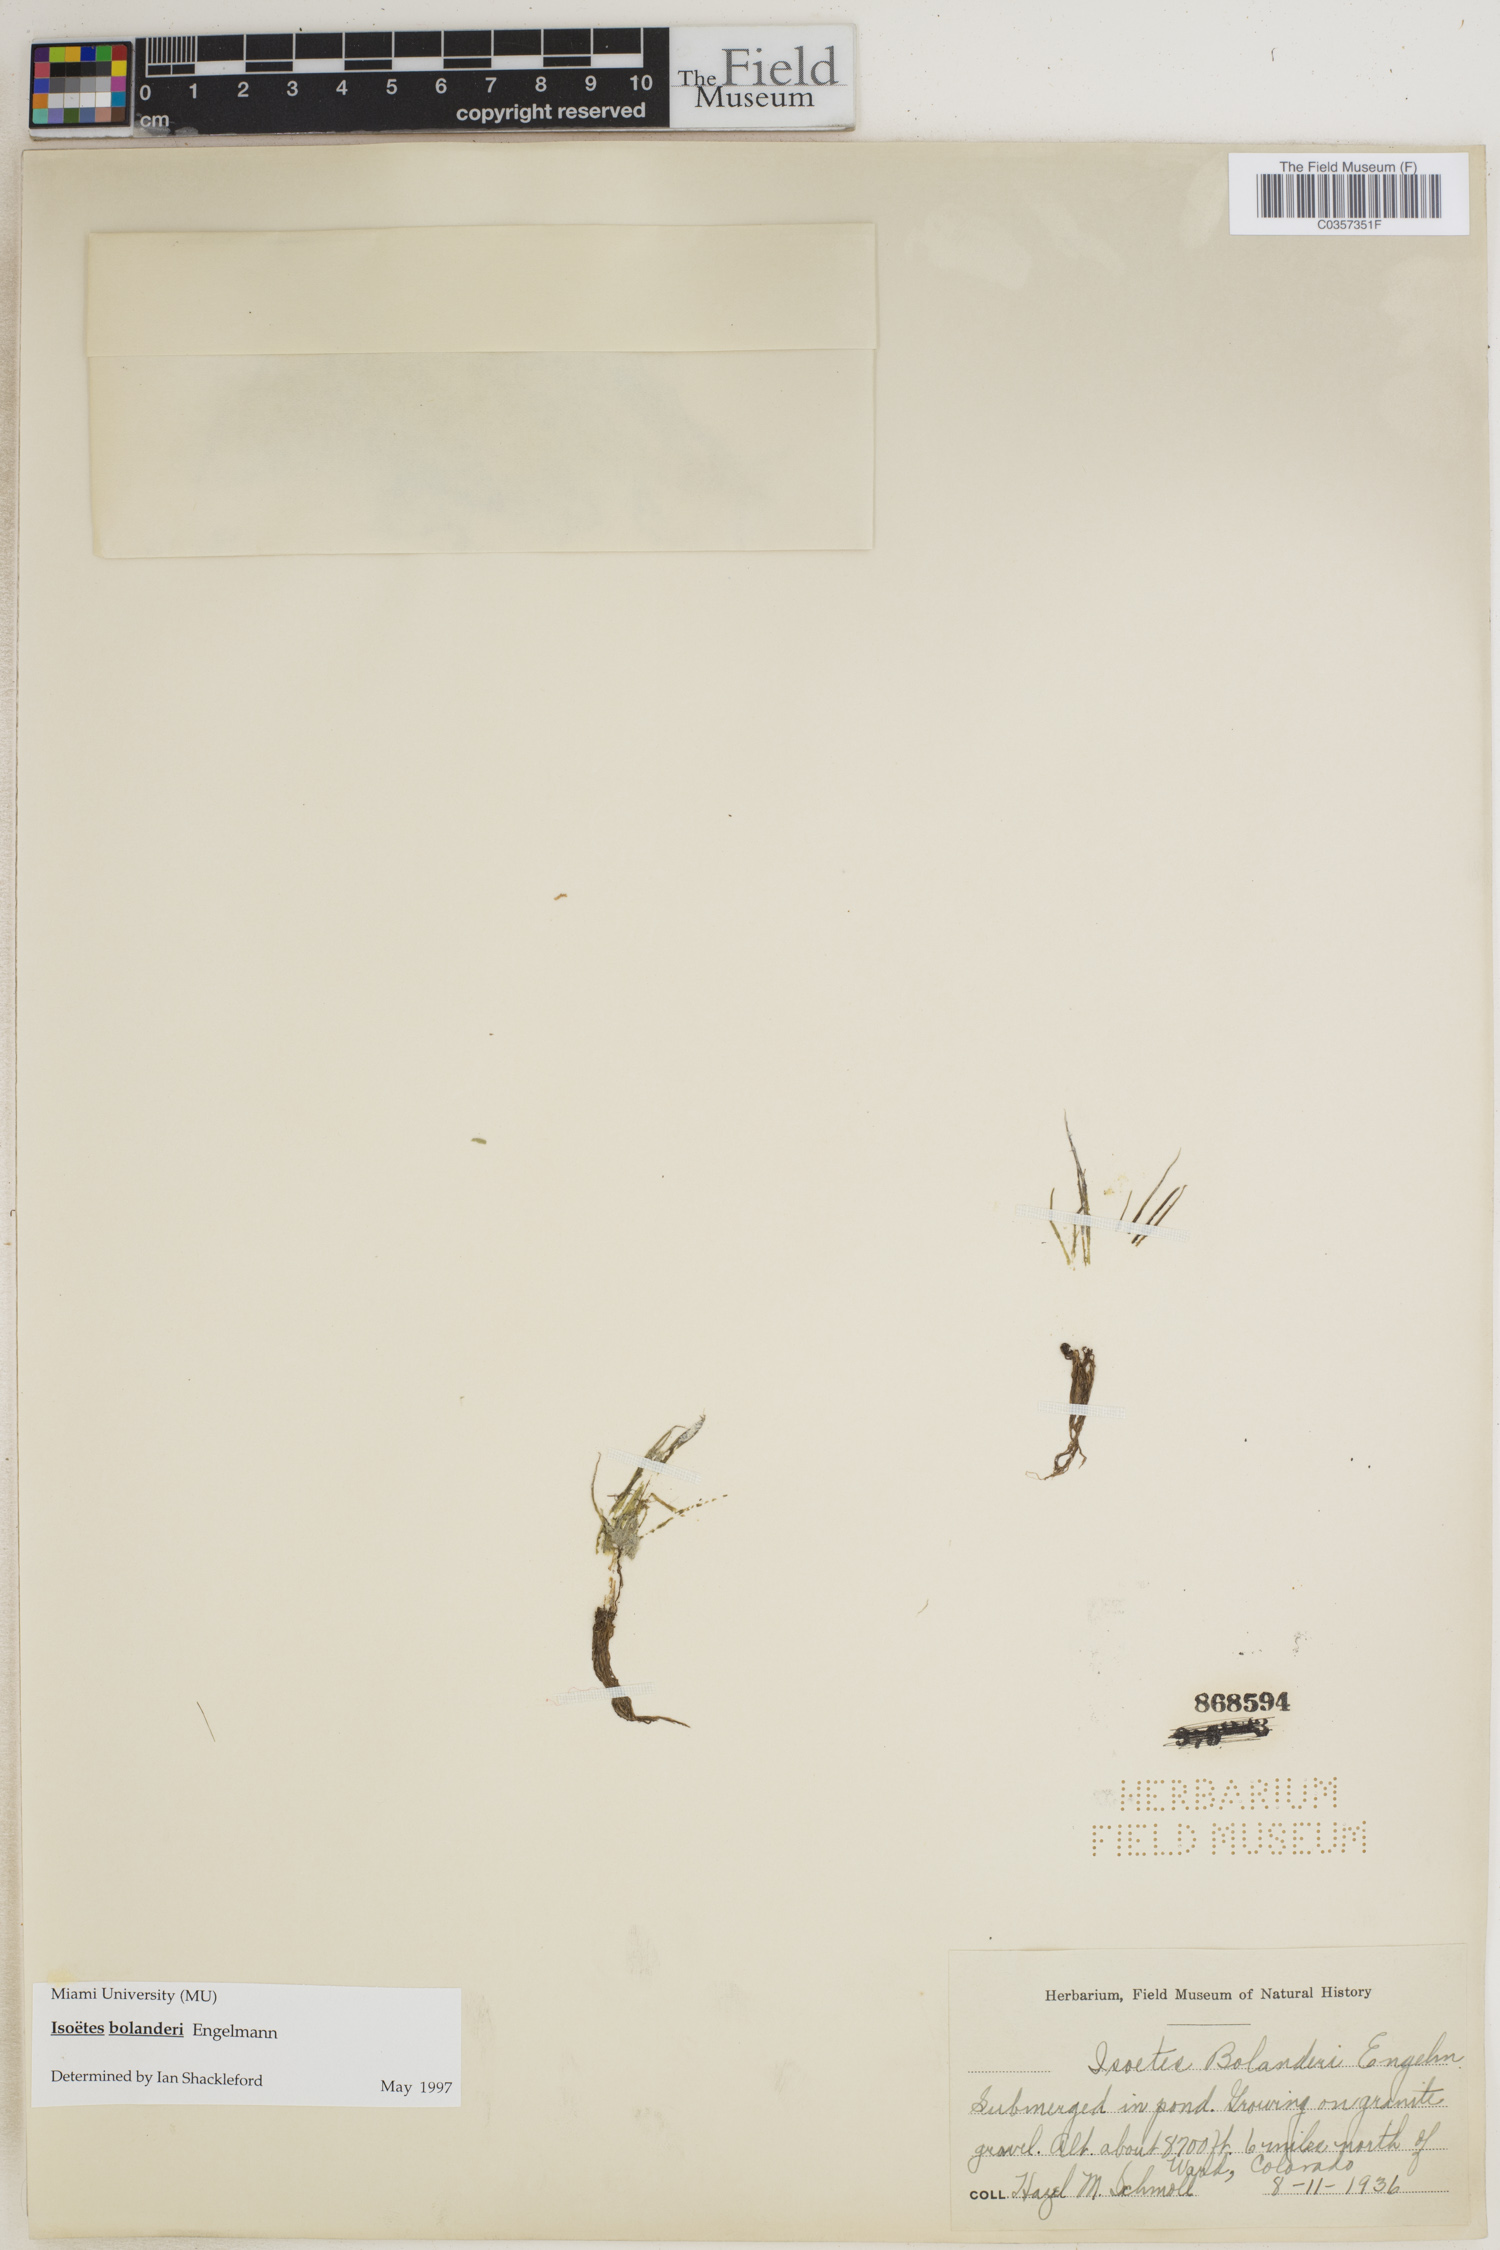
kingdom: Plantae
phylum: Tracheophyta
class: Lycopodiopsida
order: Isoetales
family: Isoetaceae
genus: Isoetes
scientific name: Isoetes bolanderi
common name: Bolander's quillwort
